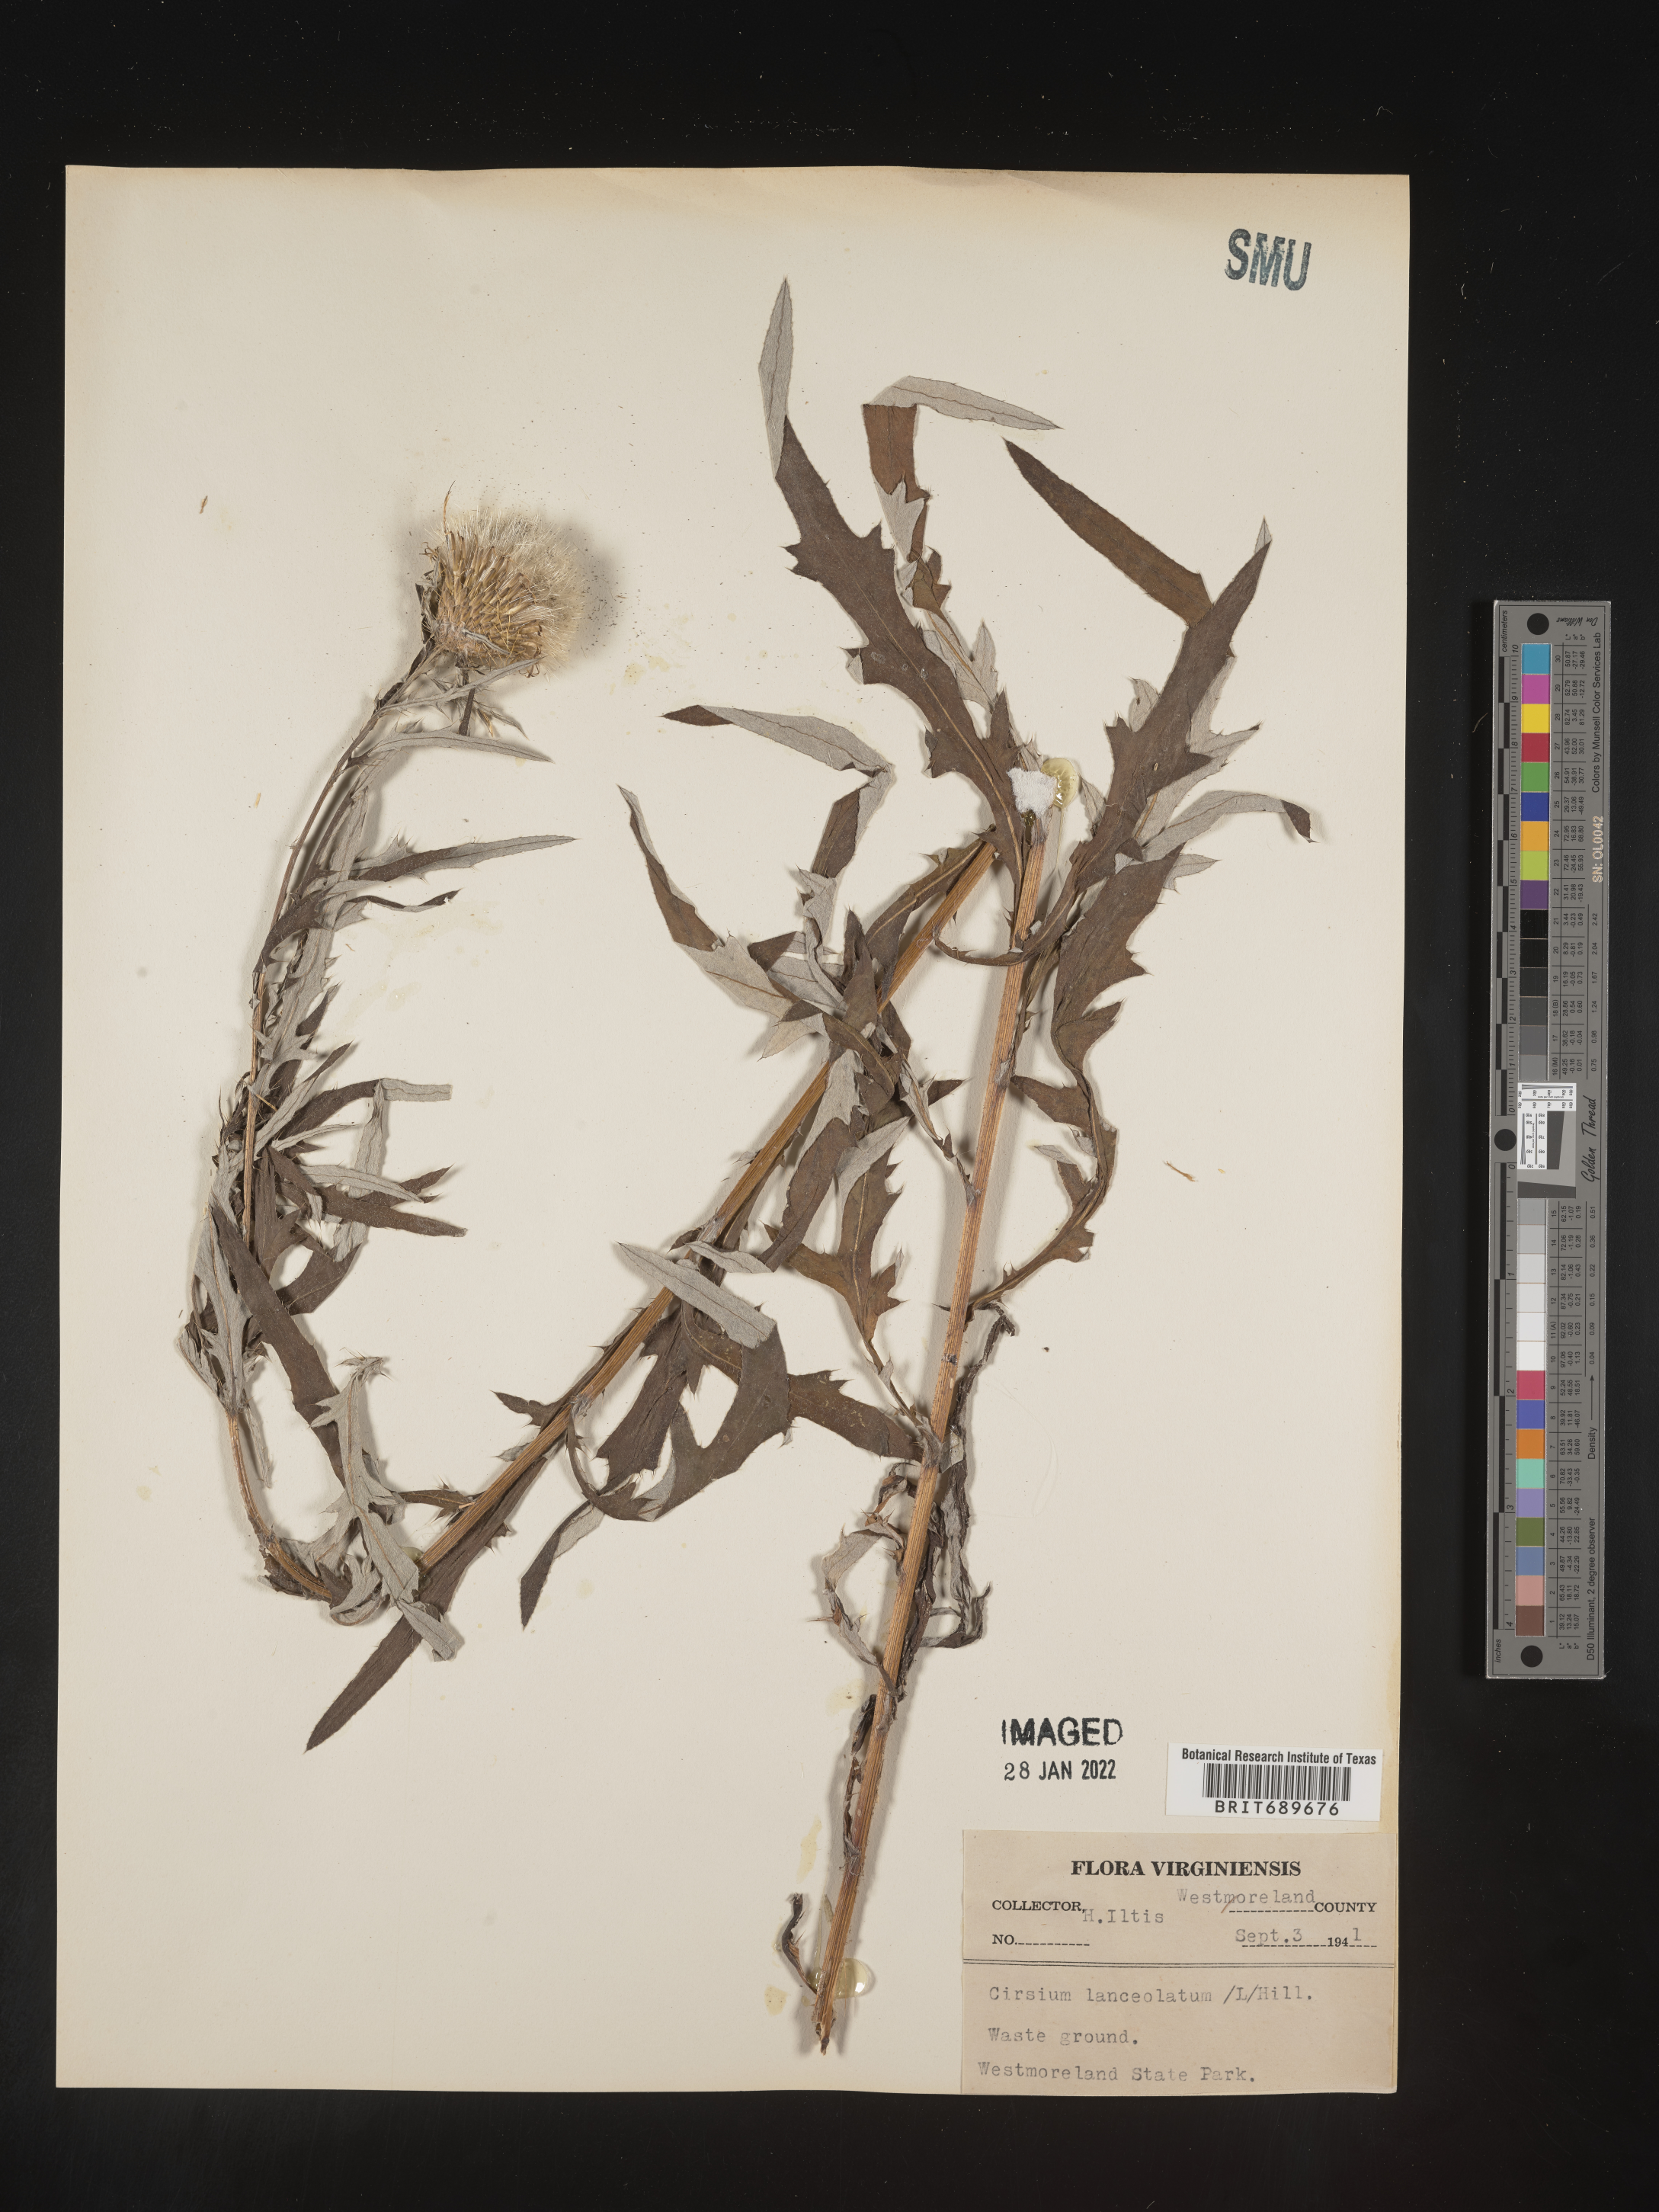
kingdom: Plantae
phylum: Tracheophyta
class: Magnoliopsida
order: Asterales
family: Asteraceae
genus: Cirsium
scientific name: Cirsium
